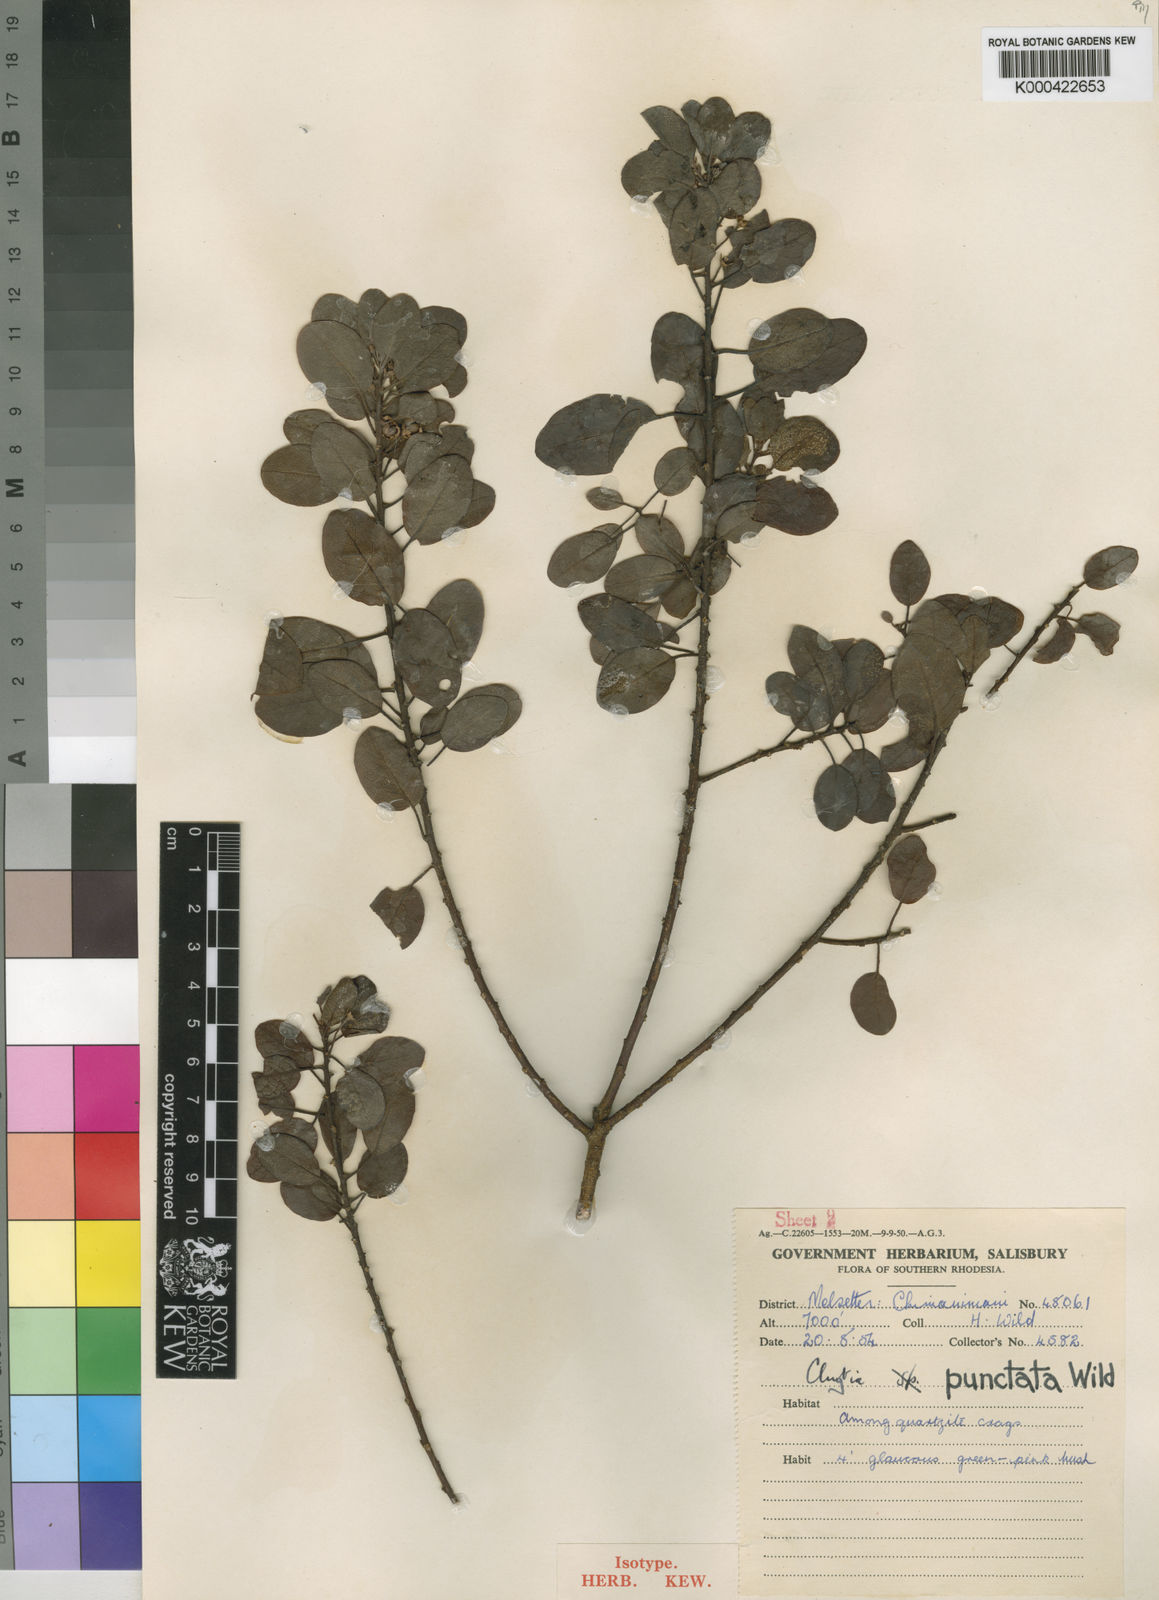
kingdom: Plantae
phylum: Tracheophyta
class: Magnoliopsida
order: Malpighiales
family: Peraceae
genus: Clutia
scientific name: Clutia punctata
